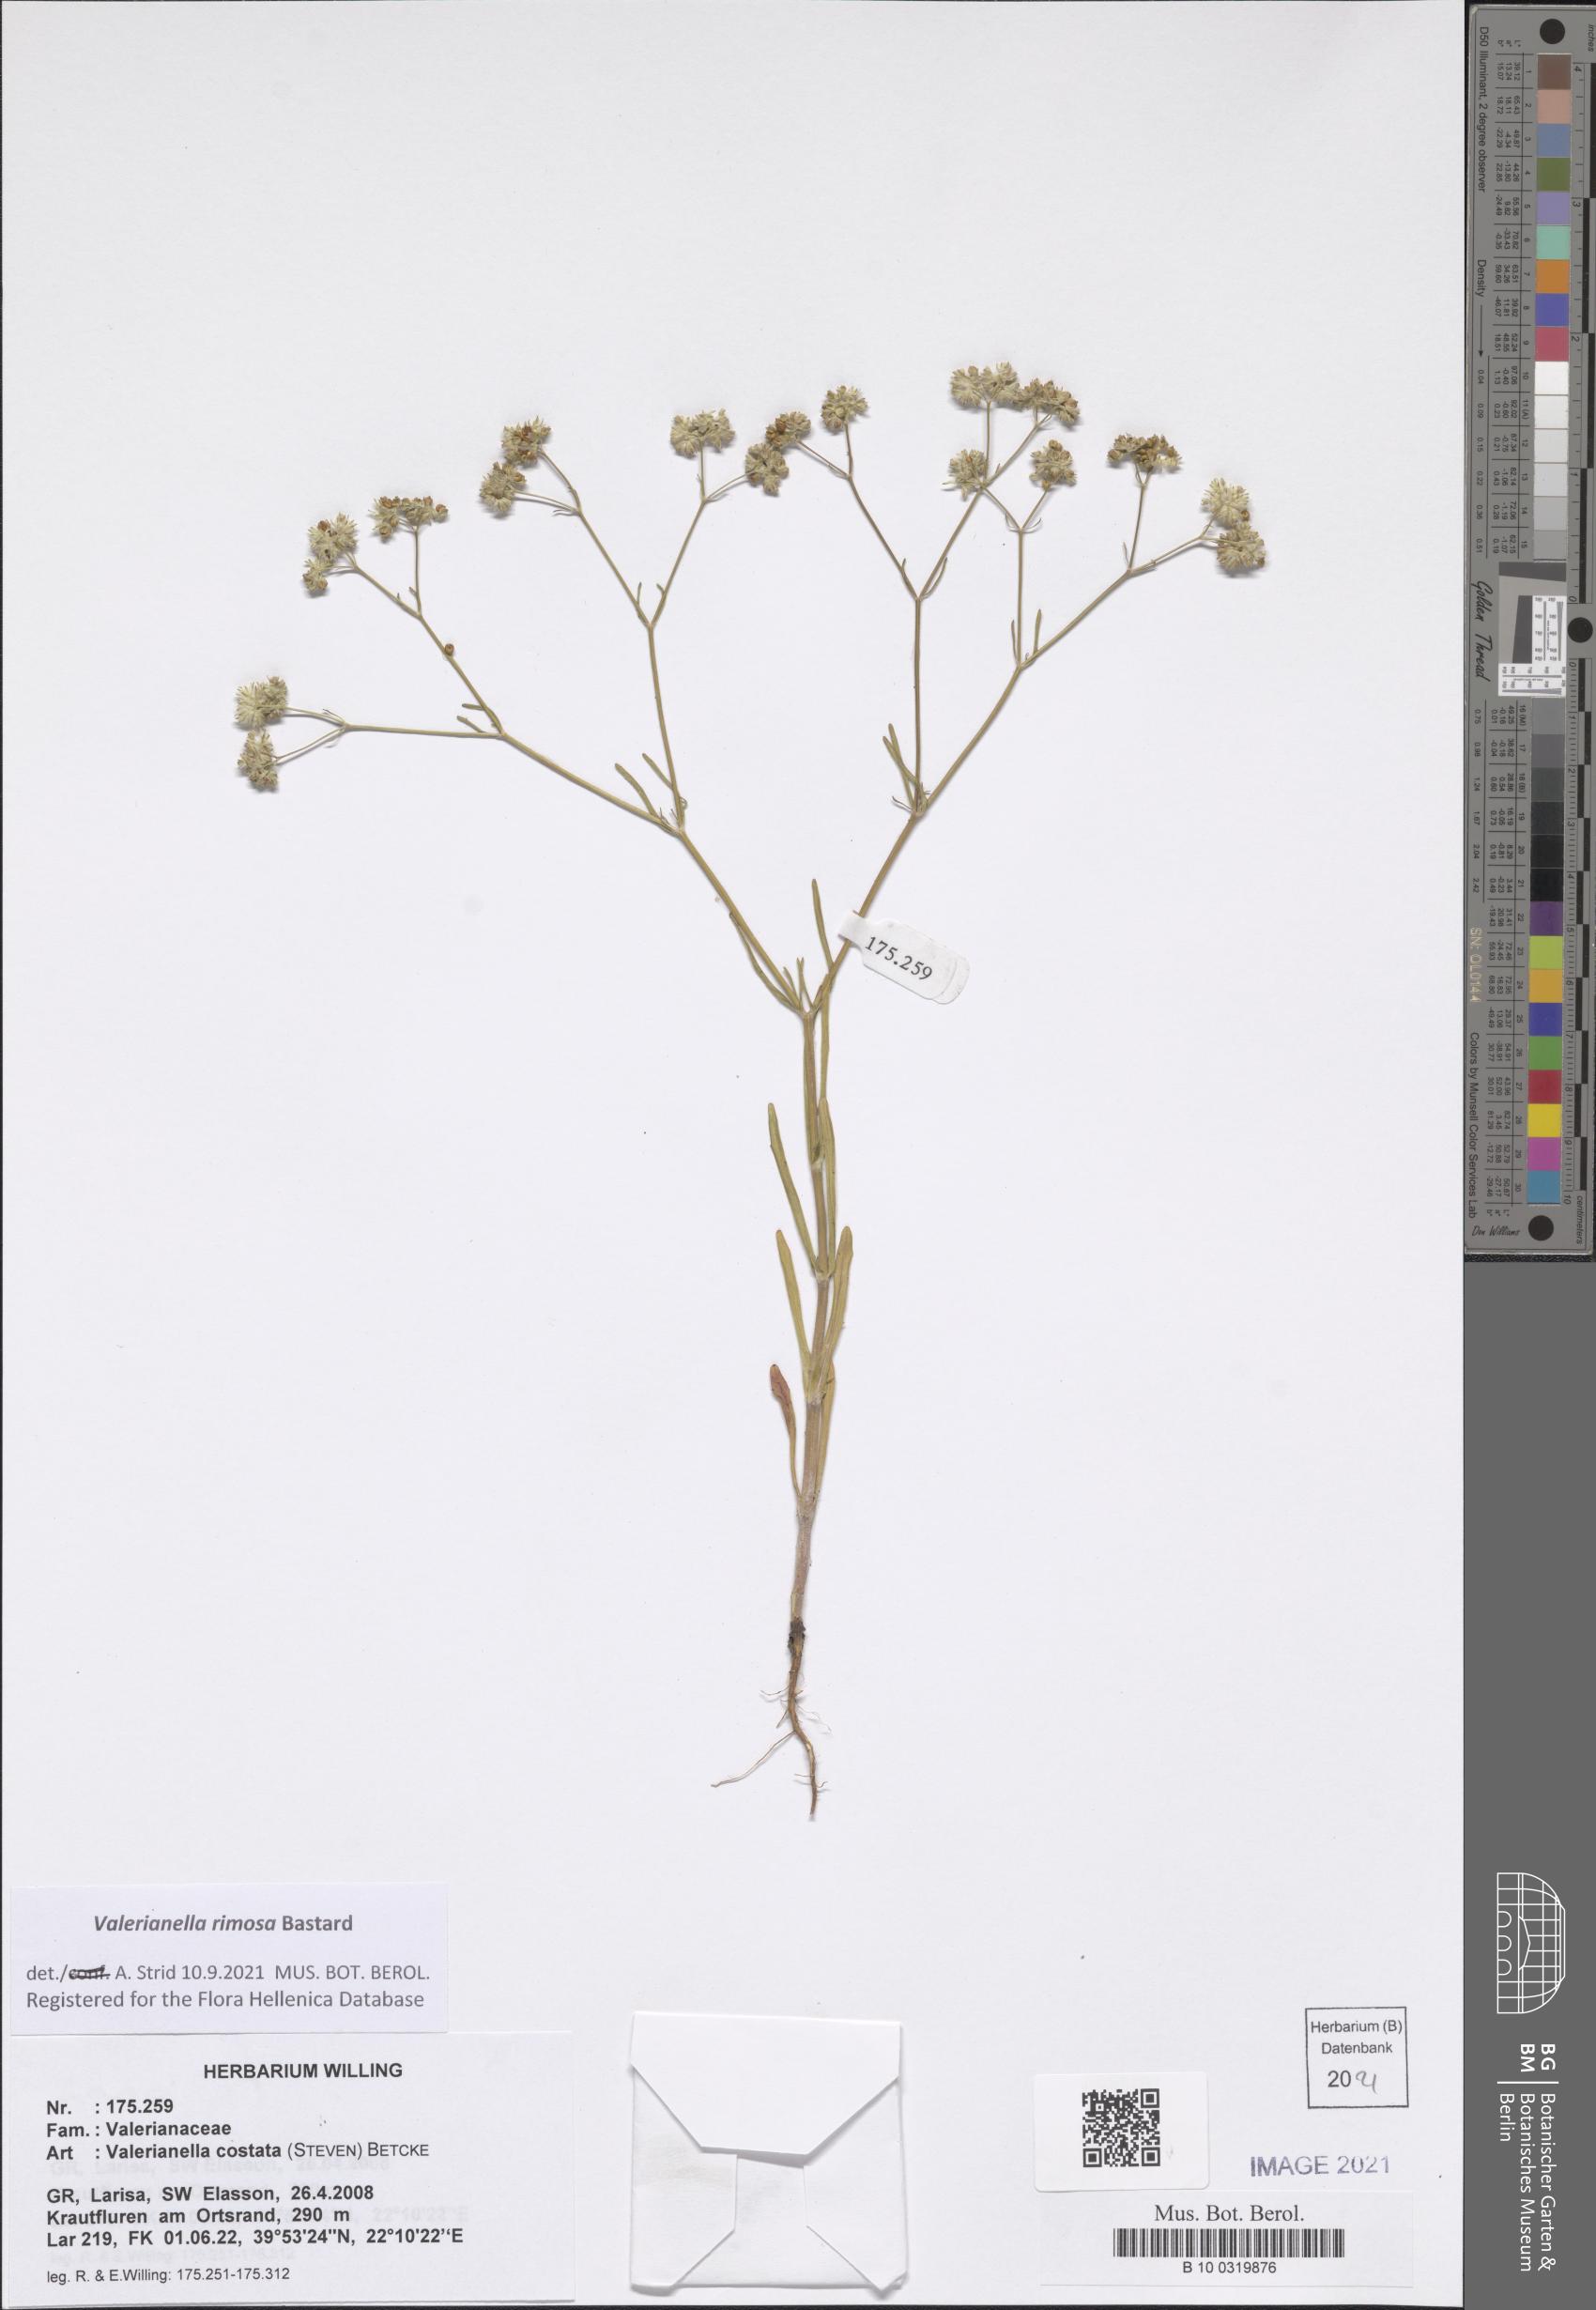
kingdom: Plantae
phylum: Tracheophyta
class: Magnoliopsida
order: Dipsacales
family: Caprifoliaceae
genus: Valerianella
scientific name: Valerianella rimosa
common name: Broad-fruited cornsalad
